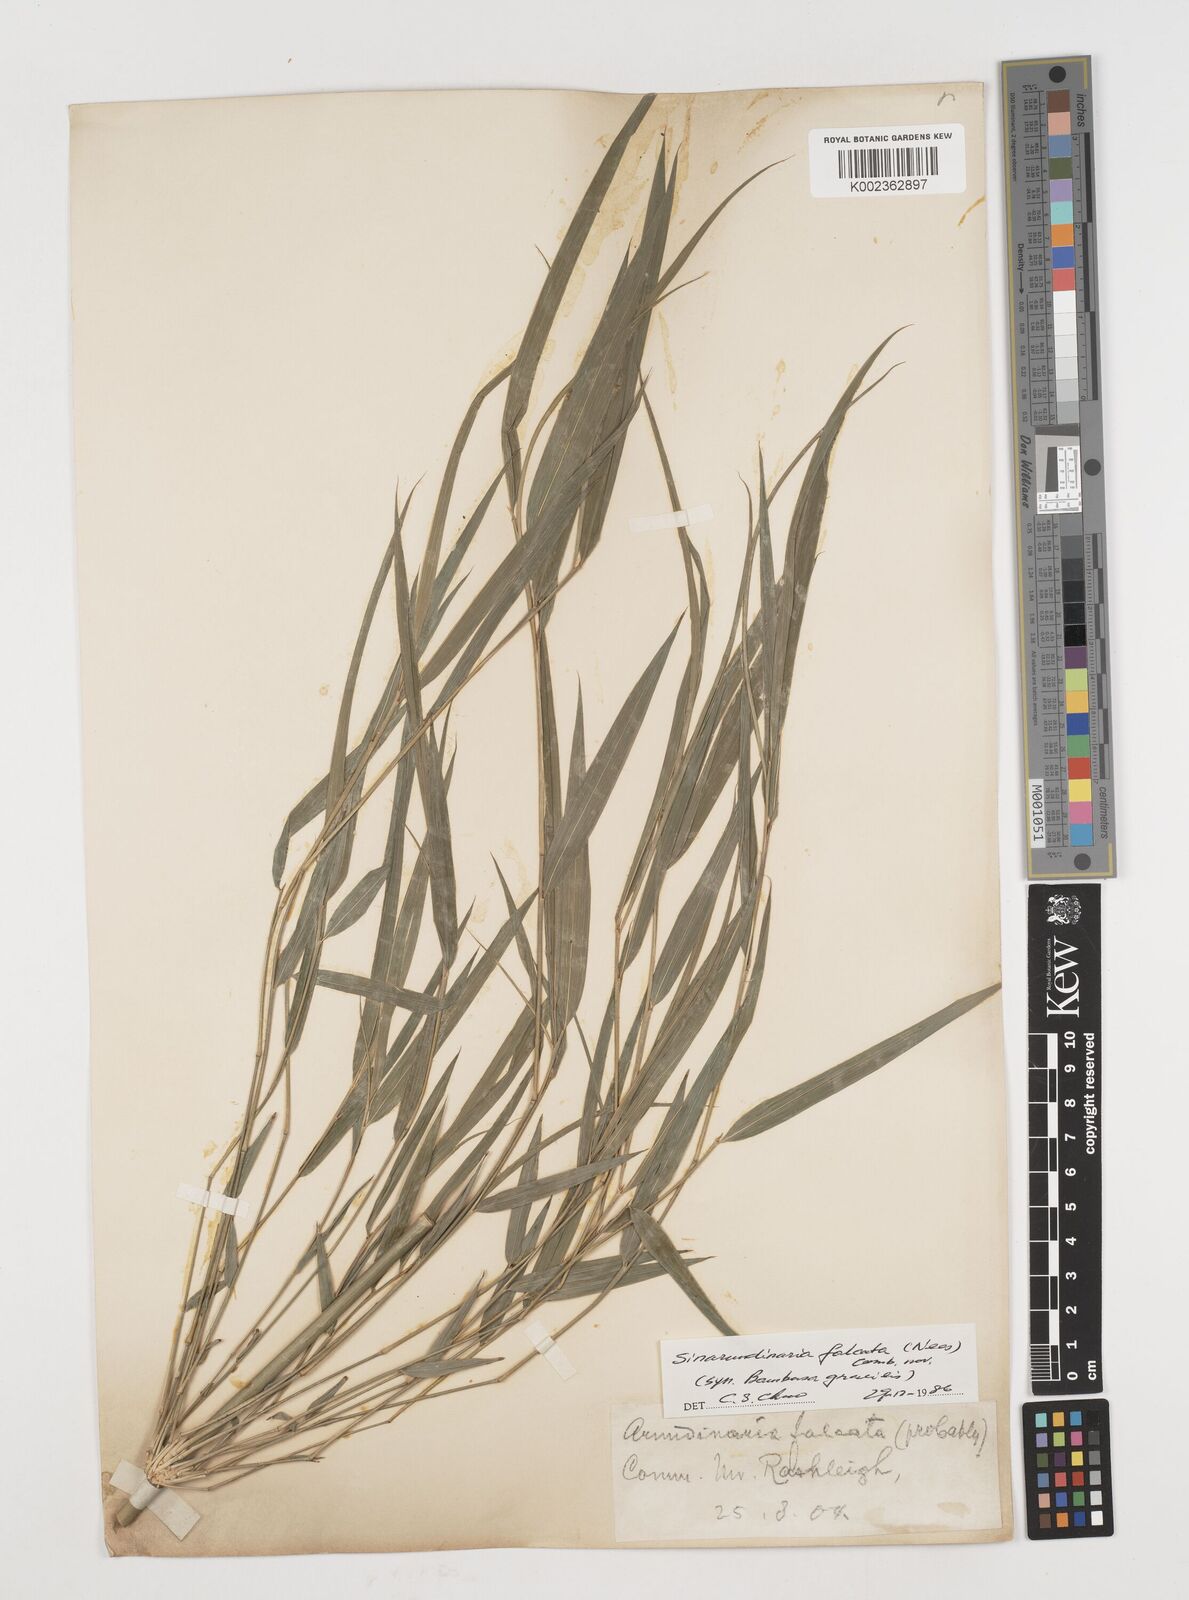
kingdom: Plantae
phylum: Tracheophyta
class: Liliopsida
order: Poales
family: Poaceae
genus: Drepanostachyum
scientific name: Drepanostachyum
